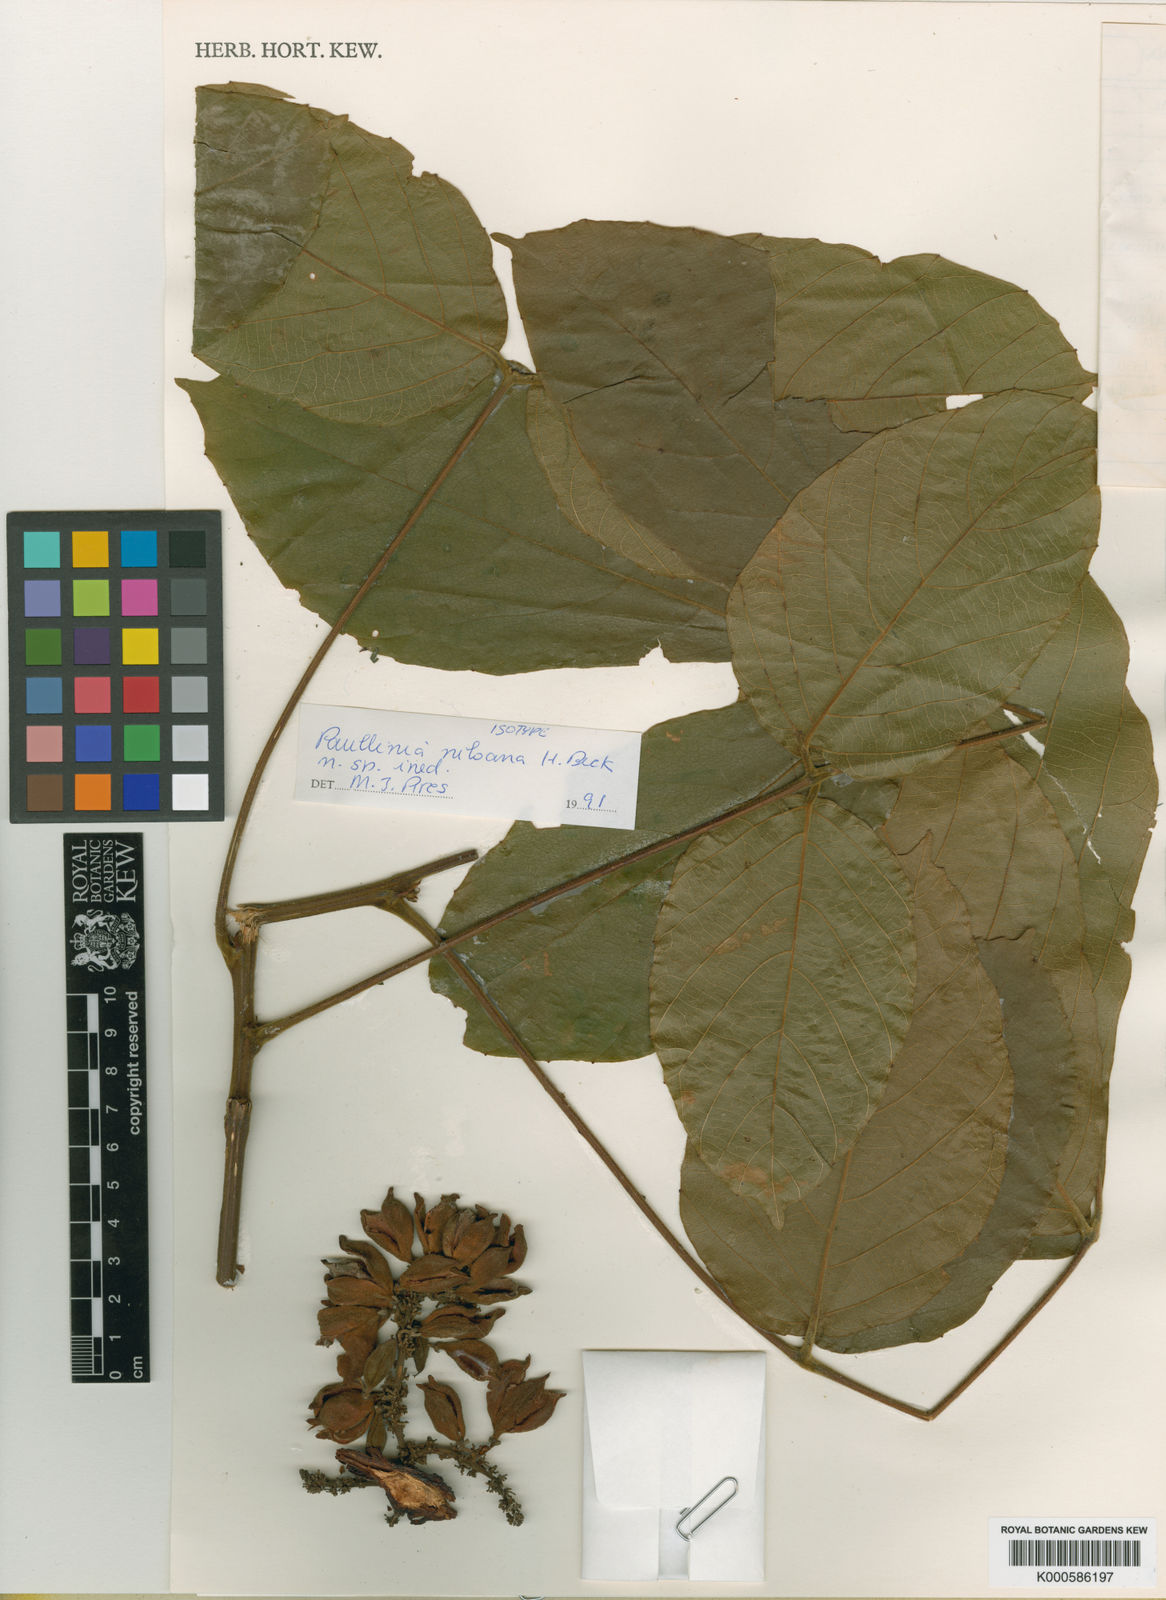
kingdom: Plantae
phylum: Tracheophyta
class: Magnoliopsida
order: Sapindales
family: Sapindaceae
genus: Paullinia
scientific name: Paullinia
